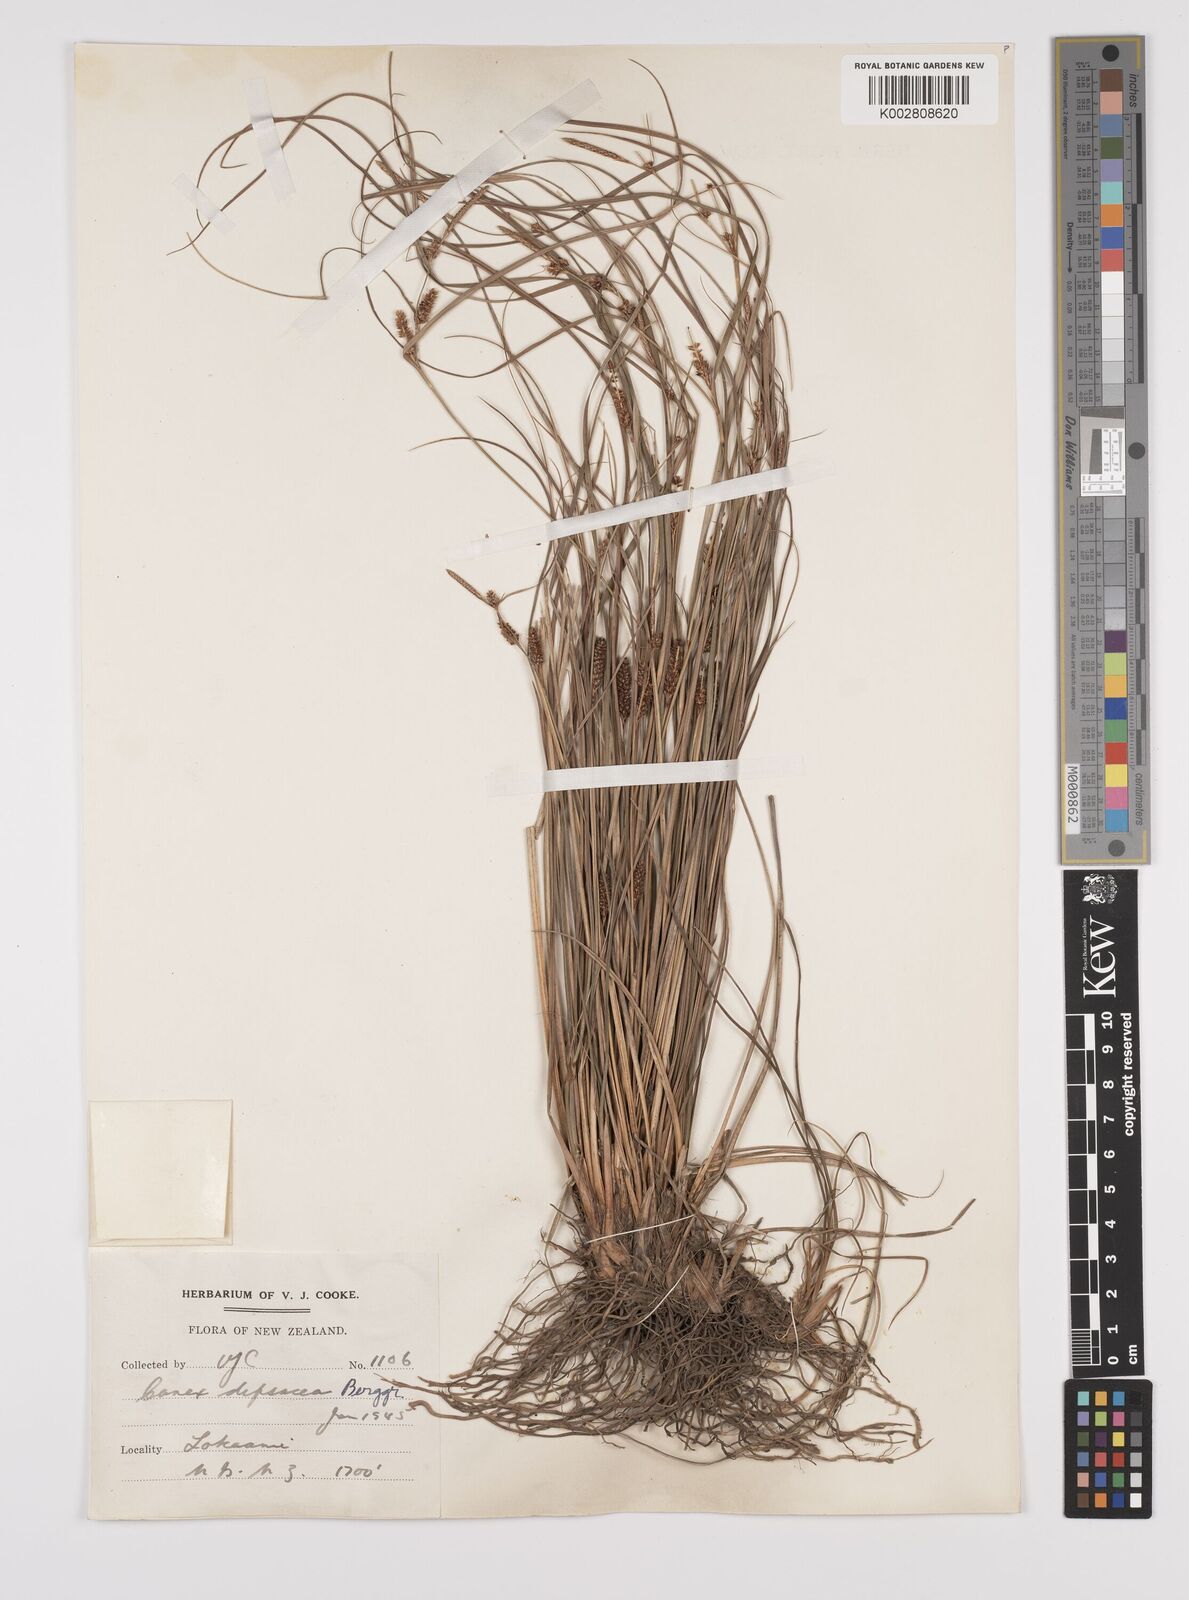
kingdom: Plantae
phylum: Tracheophyta
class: Liliopsida
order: Poales
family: Cyperaceae
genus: Carex
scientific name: Carex dipsacea
